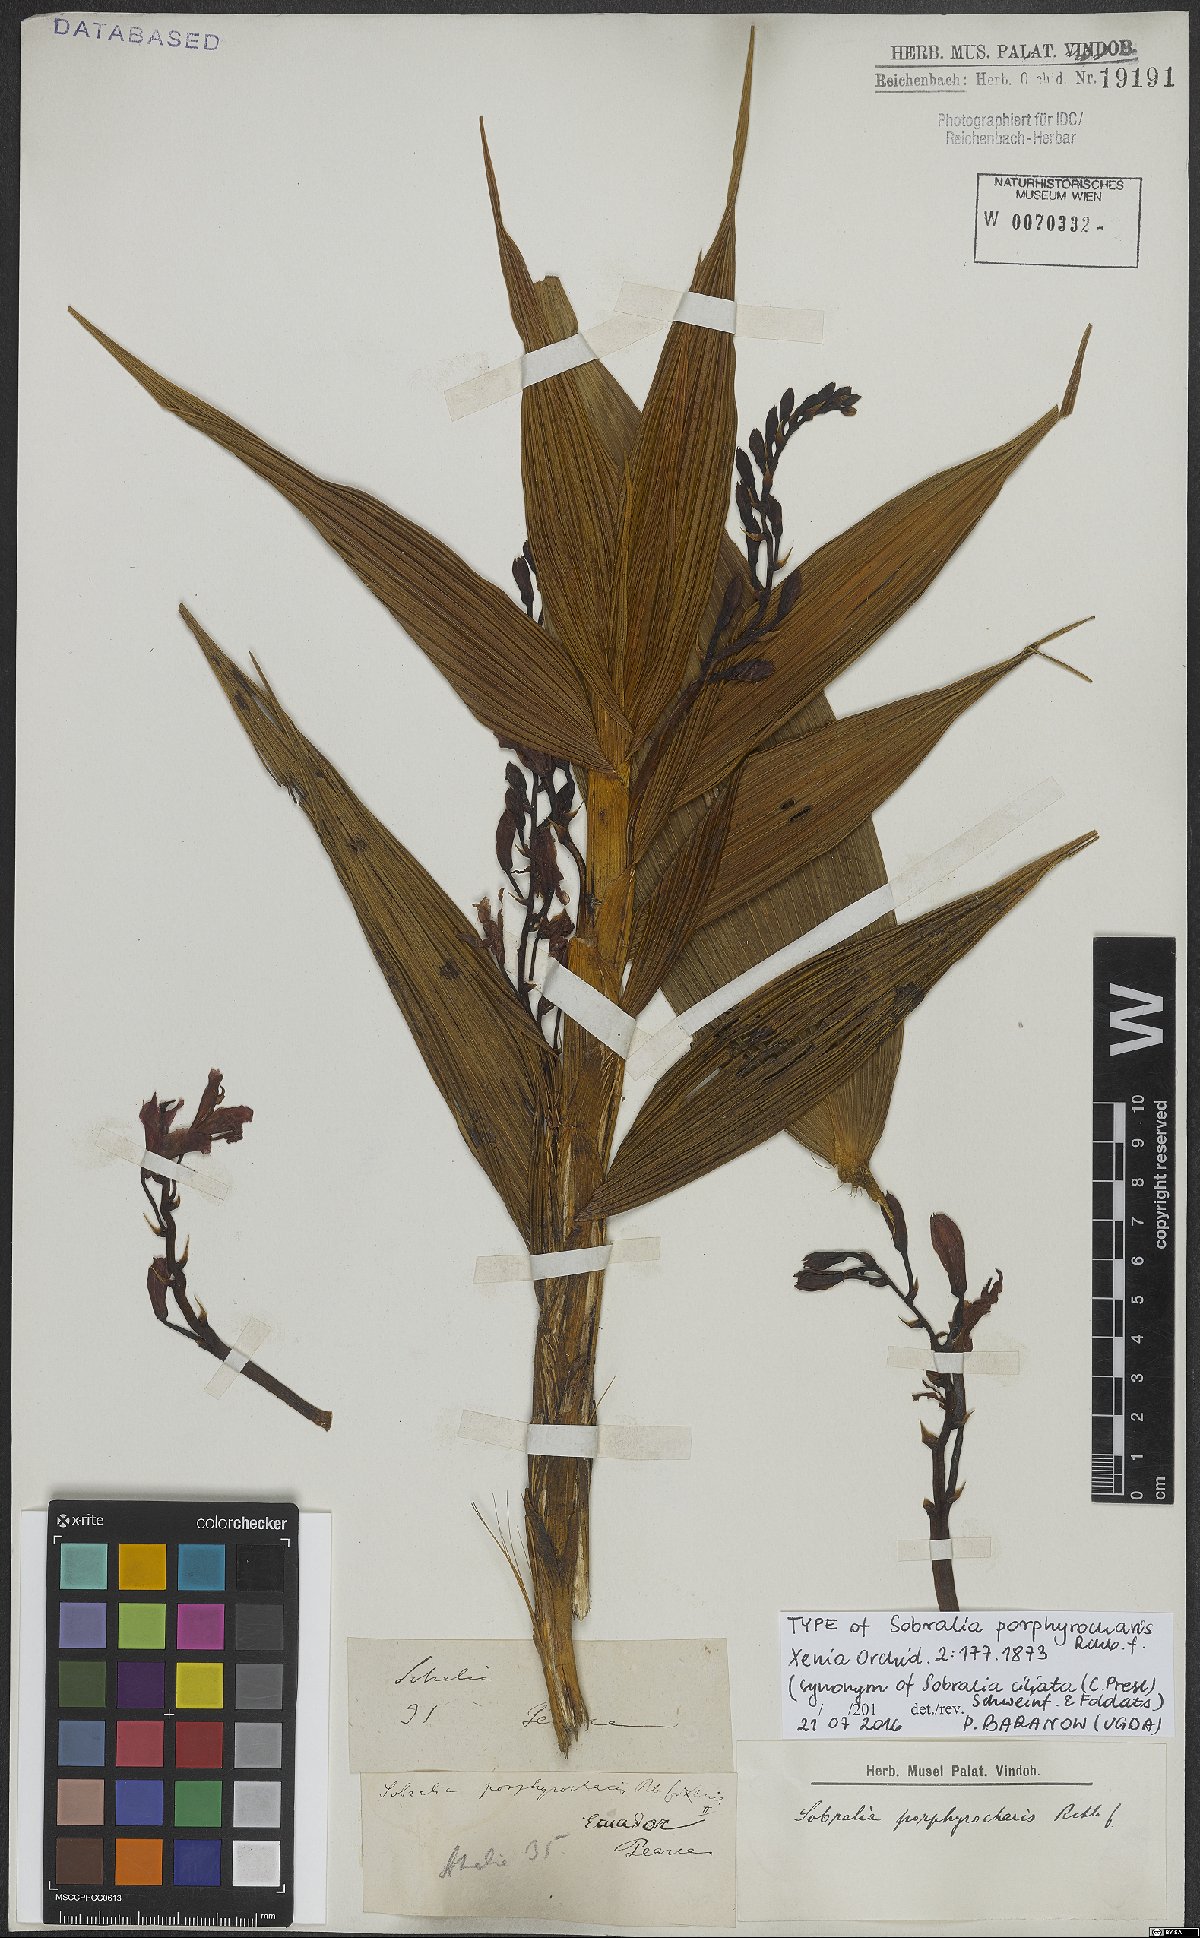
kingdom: Plantae
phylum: Tracheophyta
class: Liliopsida
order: Asparagales
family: Orchidaceae
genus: Sobralia
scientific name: Sobralia ciliata
